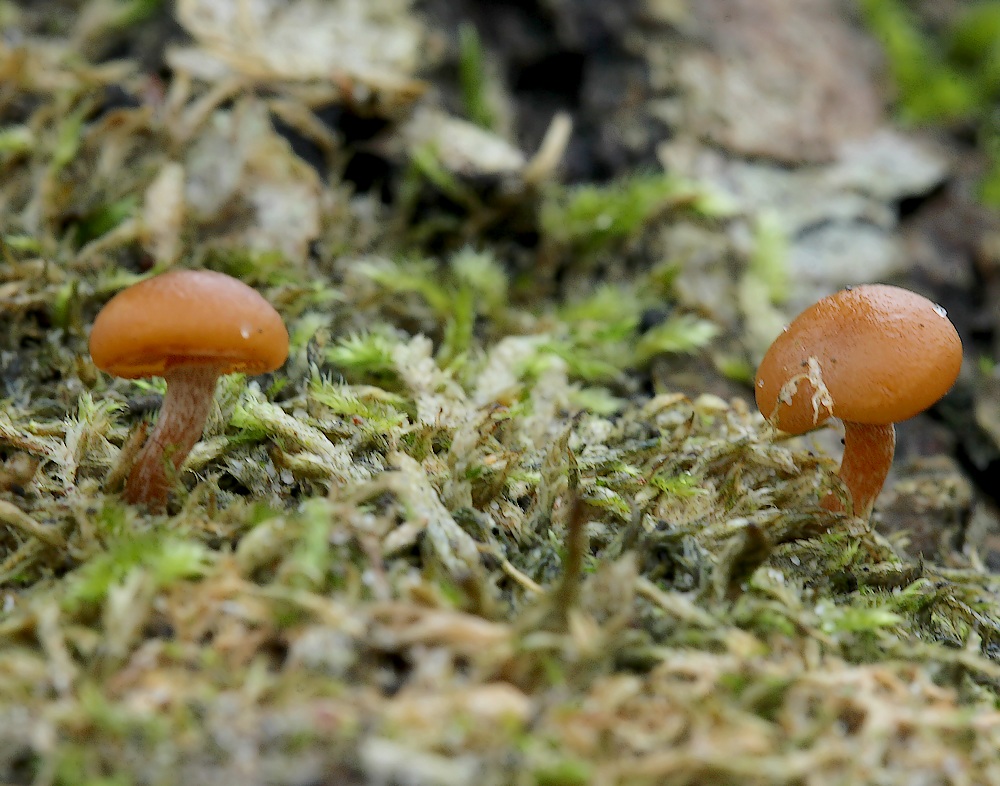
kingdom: Fungi
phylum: Basidiomycota
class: Agaricomycetes
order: Agaricales
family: Hymenogastraceae
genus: Galerina
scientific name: Galerina marginata
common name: randbæltet hjelmhat
